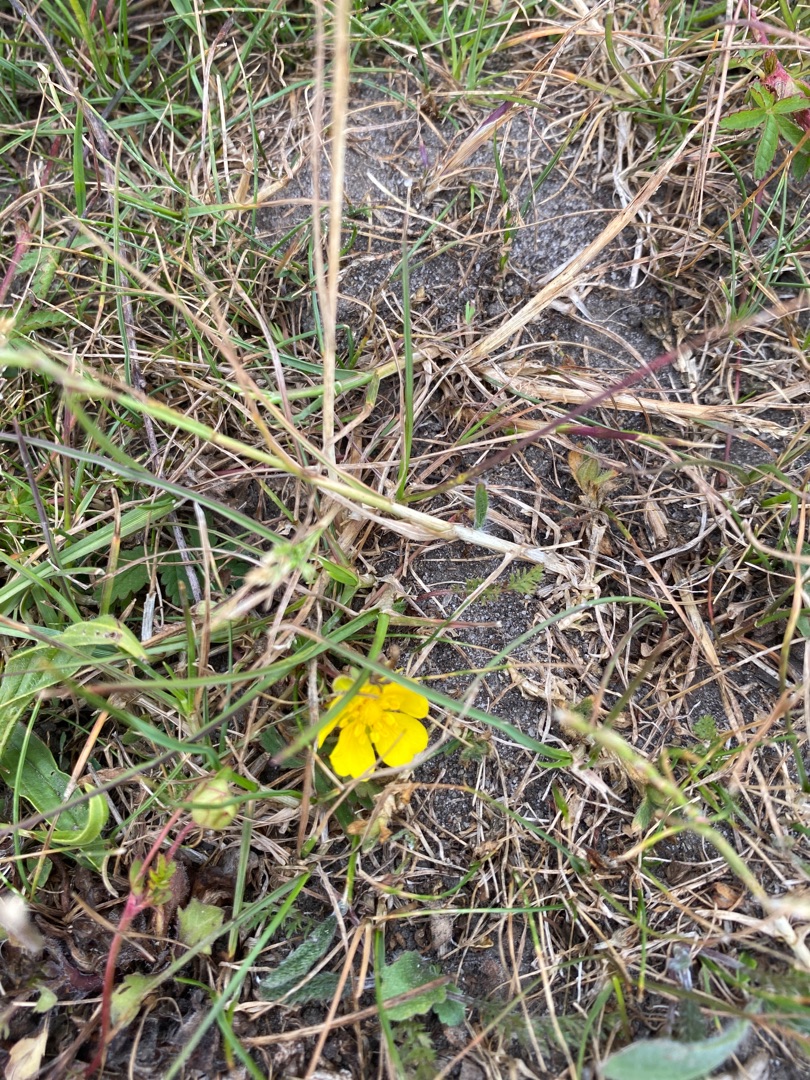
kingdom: Plantae
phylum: Tracheophyta
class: Magnoliopsida
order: Rosales
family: Rosaceae
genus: Potentilla
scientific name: Potentilla reptans
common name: Krybende potentil
